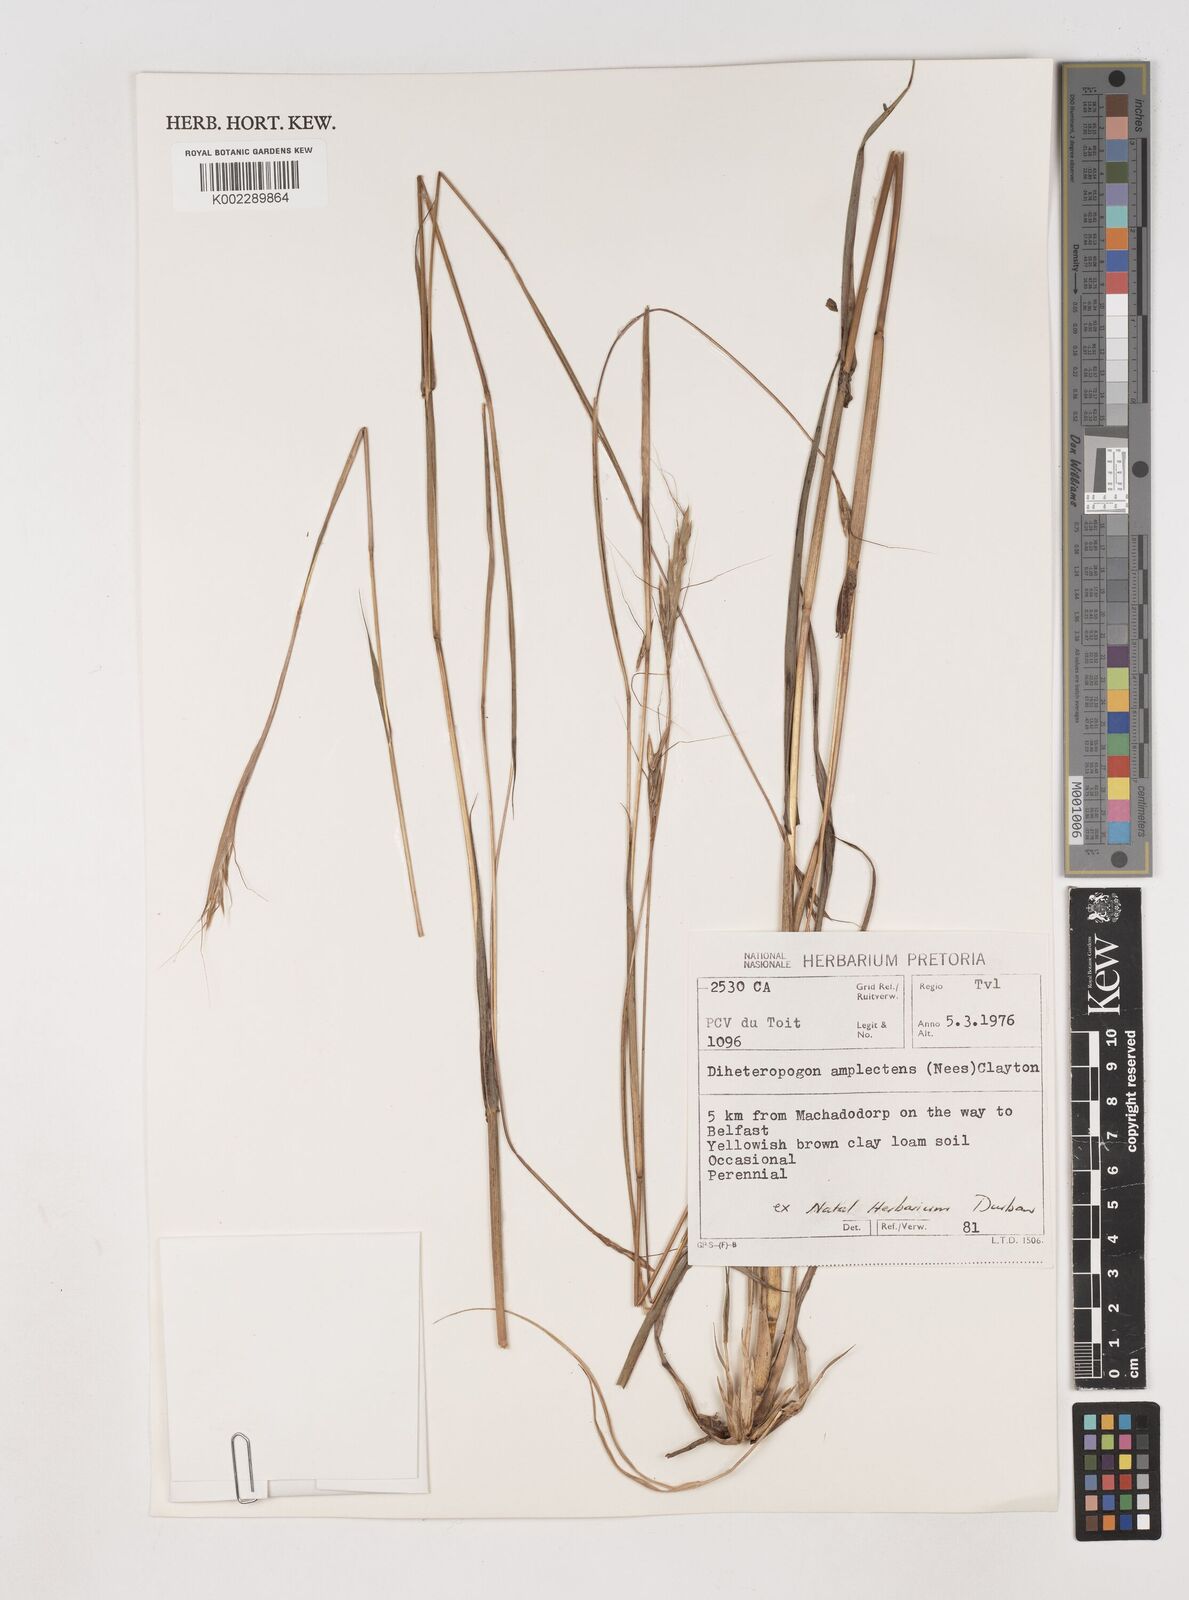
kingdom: Plantae
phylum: Tracheophyta
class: Liliopsida
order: Poales
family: Poaceae
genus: Diheteropogon
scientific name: Diheteropogon amplectens
